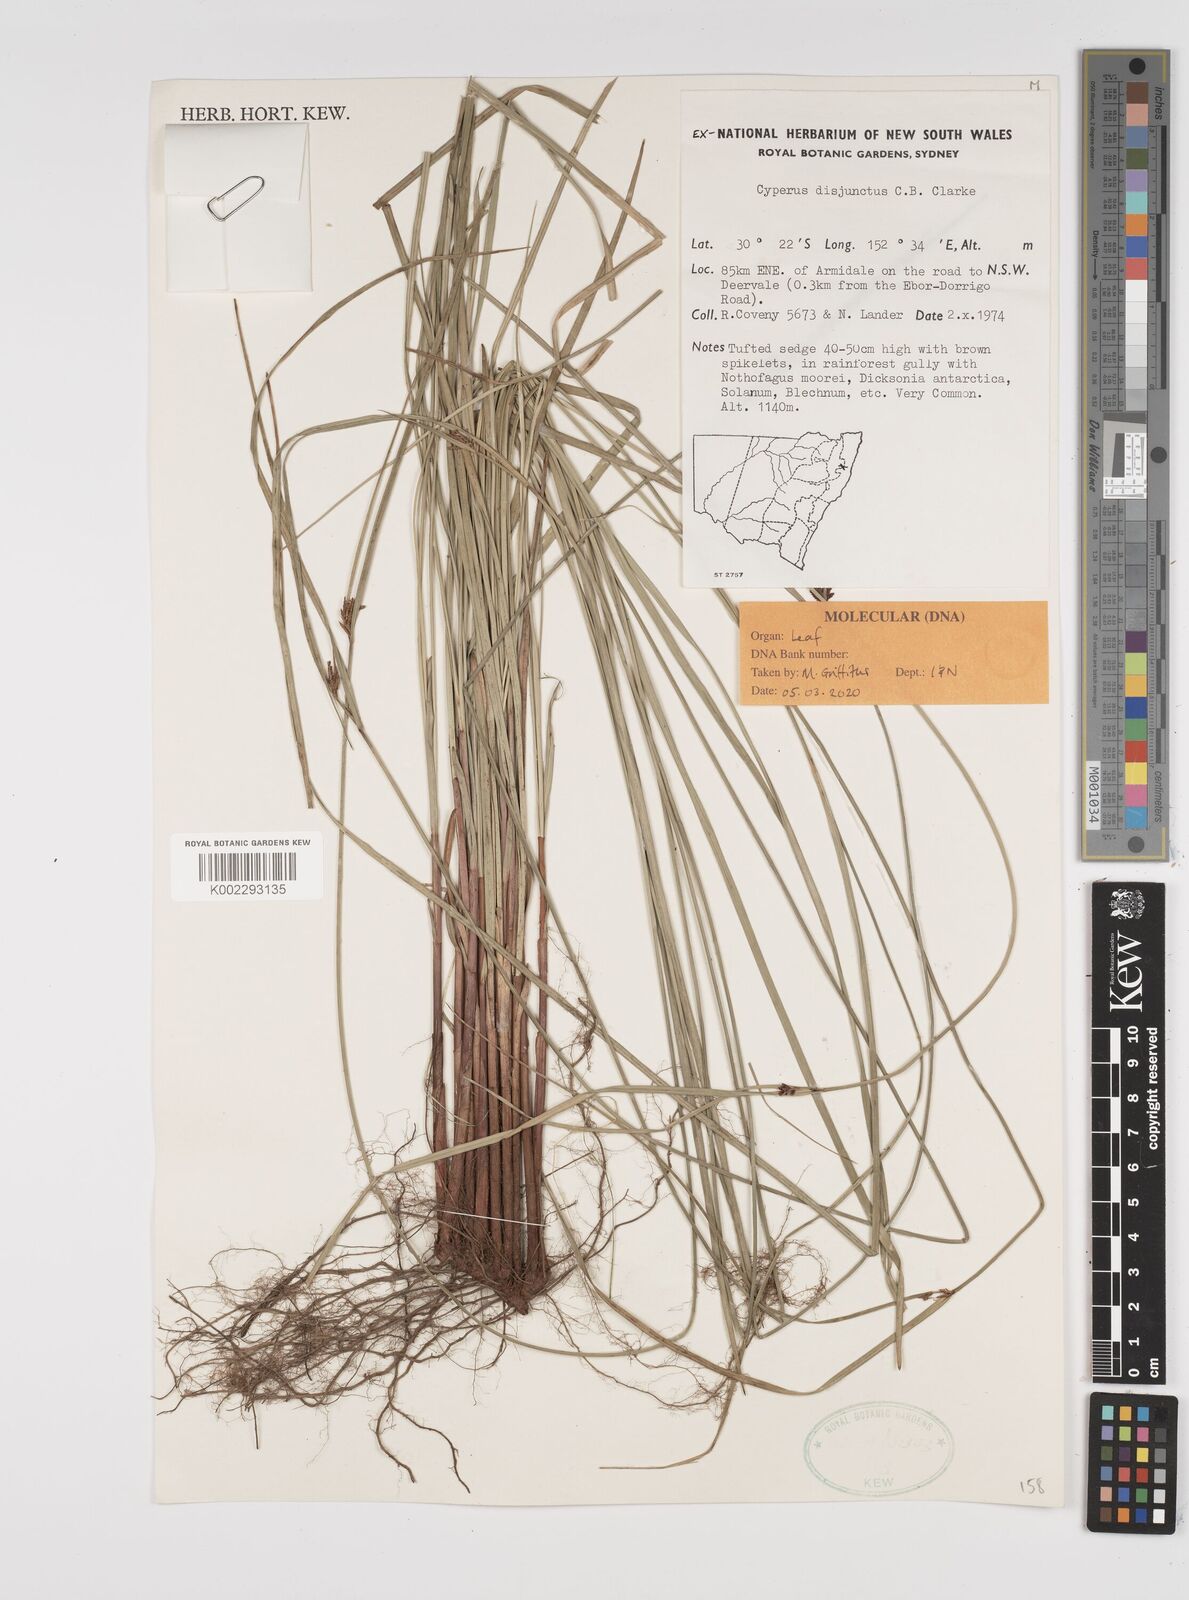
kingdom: Plantae
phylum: Tracheophyta
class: Liliopsida
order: Poales
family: Cyperaceae
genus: Cyperus
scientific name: Cyperus disjunctus
